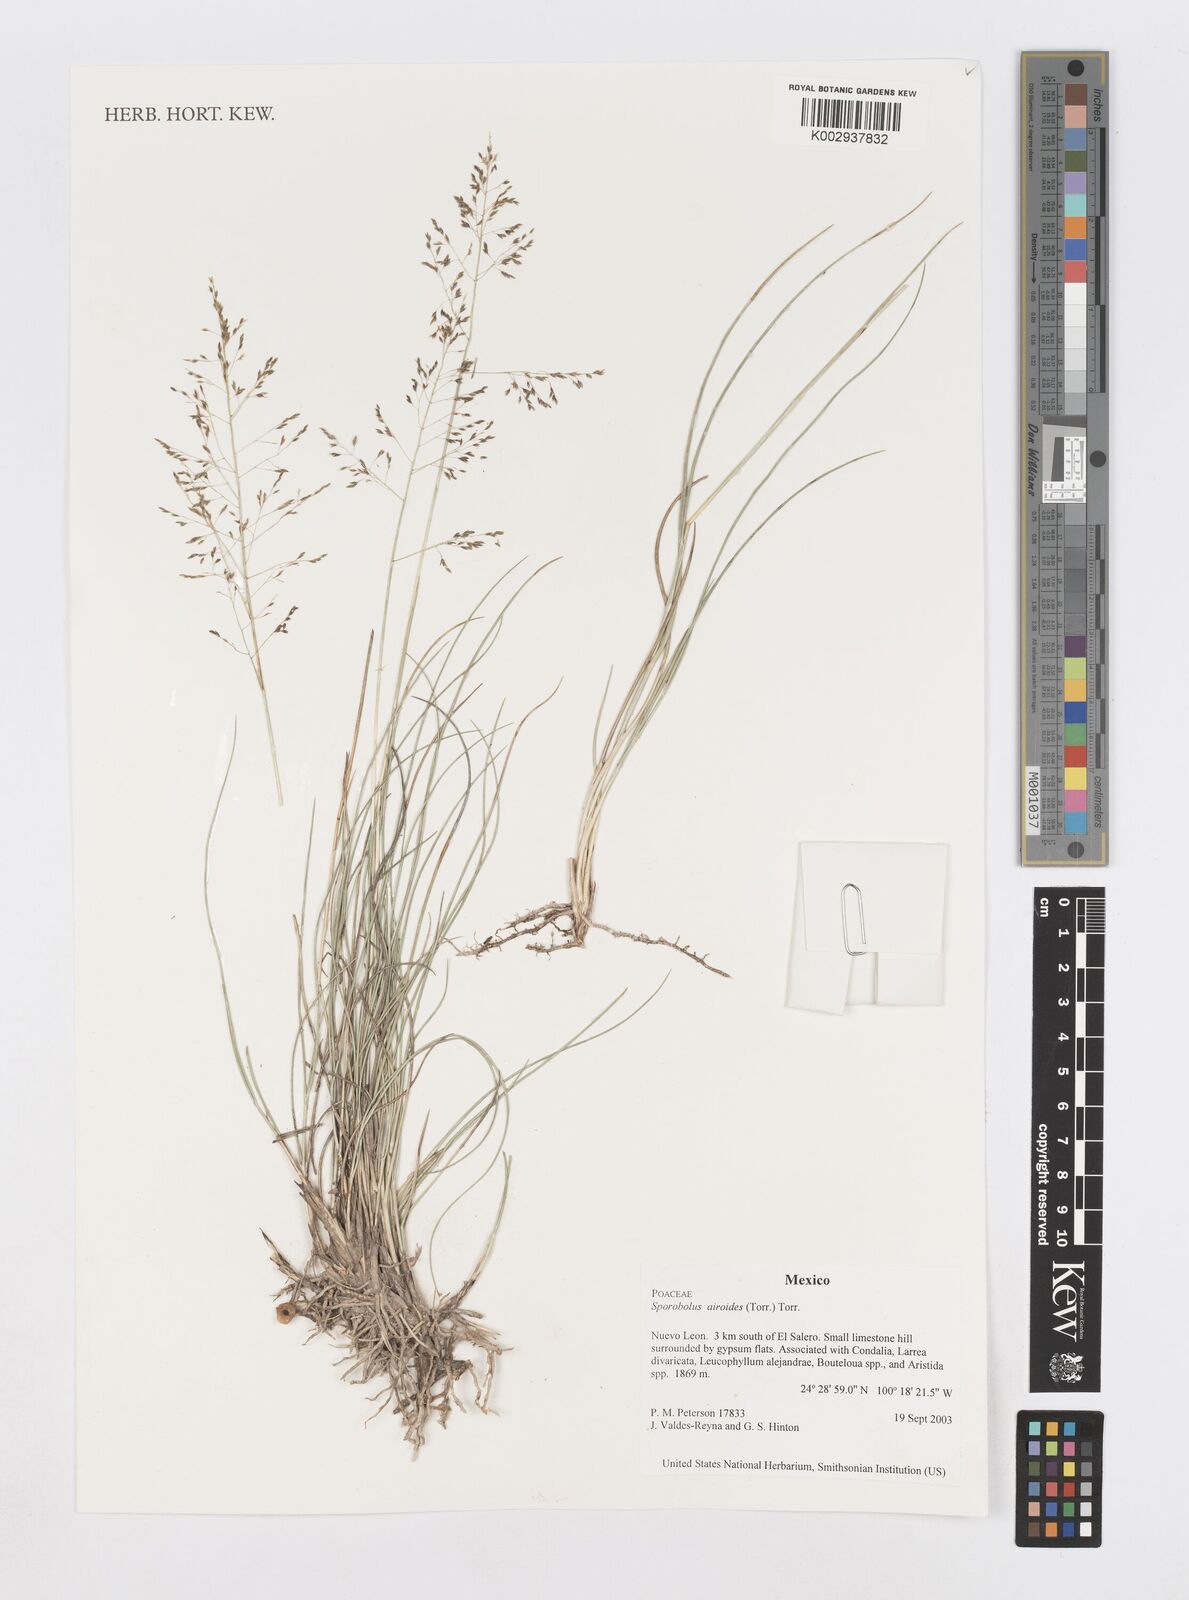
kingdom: Plantae
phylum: Tracheophyta
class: Liliopsida
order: Poales
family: Poaceae
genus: Sporobolus
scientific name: Sporobolus airoides
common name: Alkali sacaton
